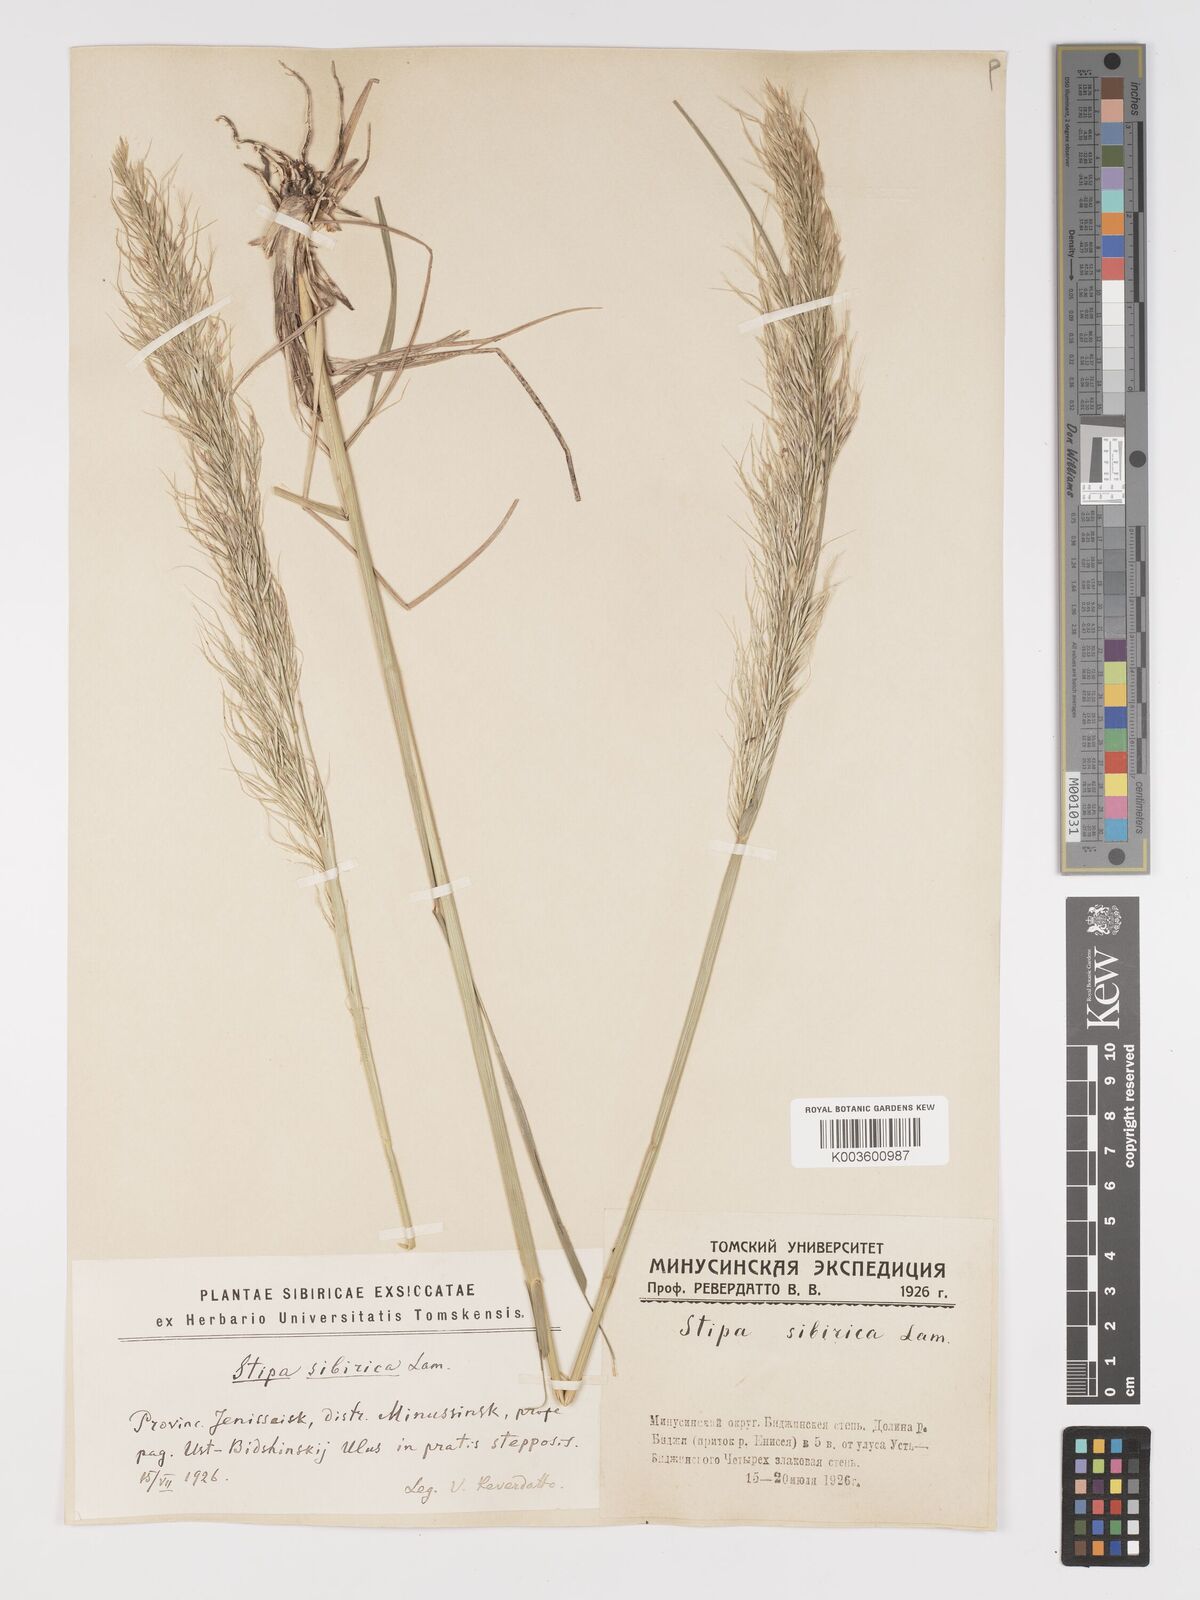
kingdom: Plantae
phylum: Tracheophyta
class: Liliopsida
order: Poales
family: Poaceae
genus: Achnatherum
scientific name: Achnatherum sibiricum
